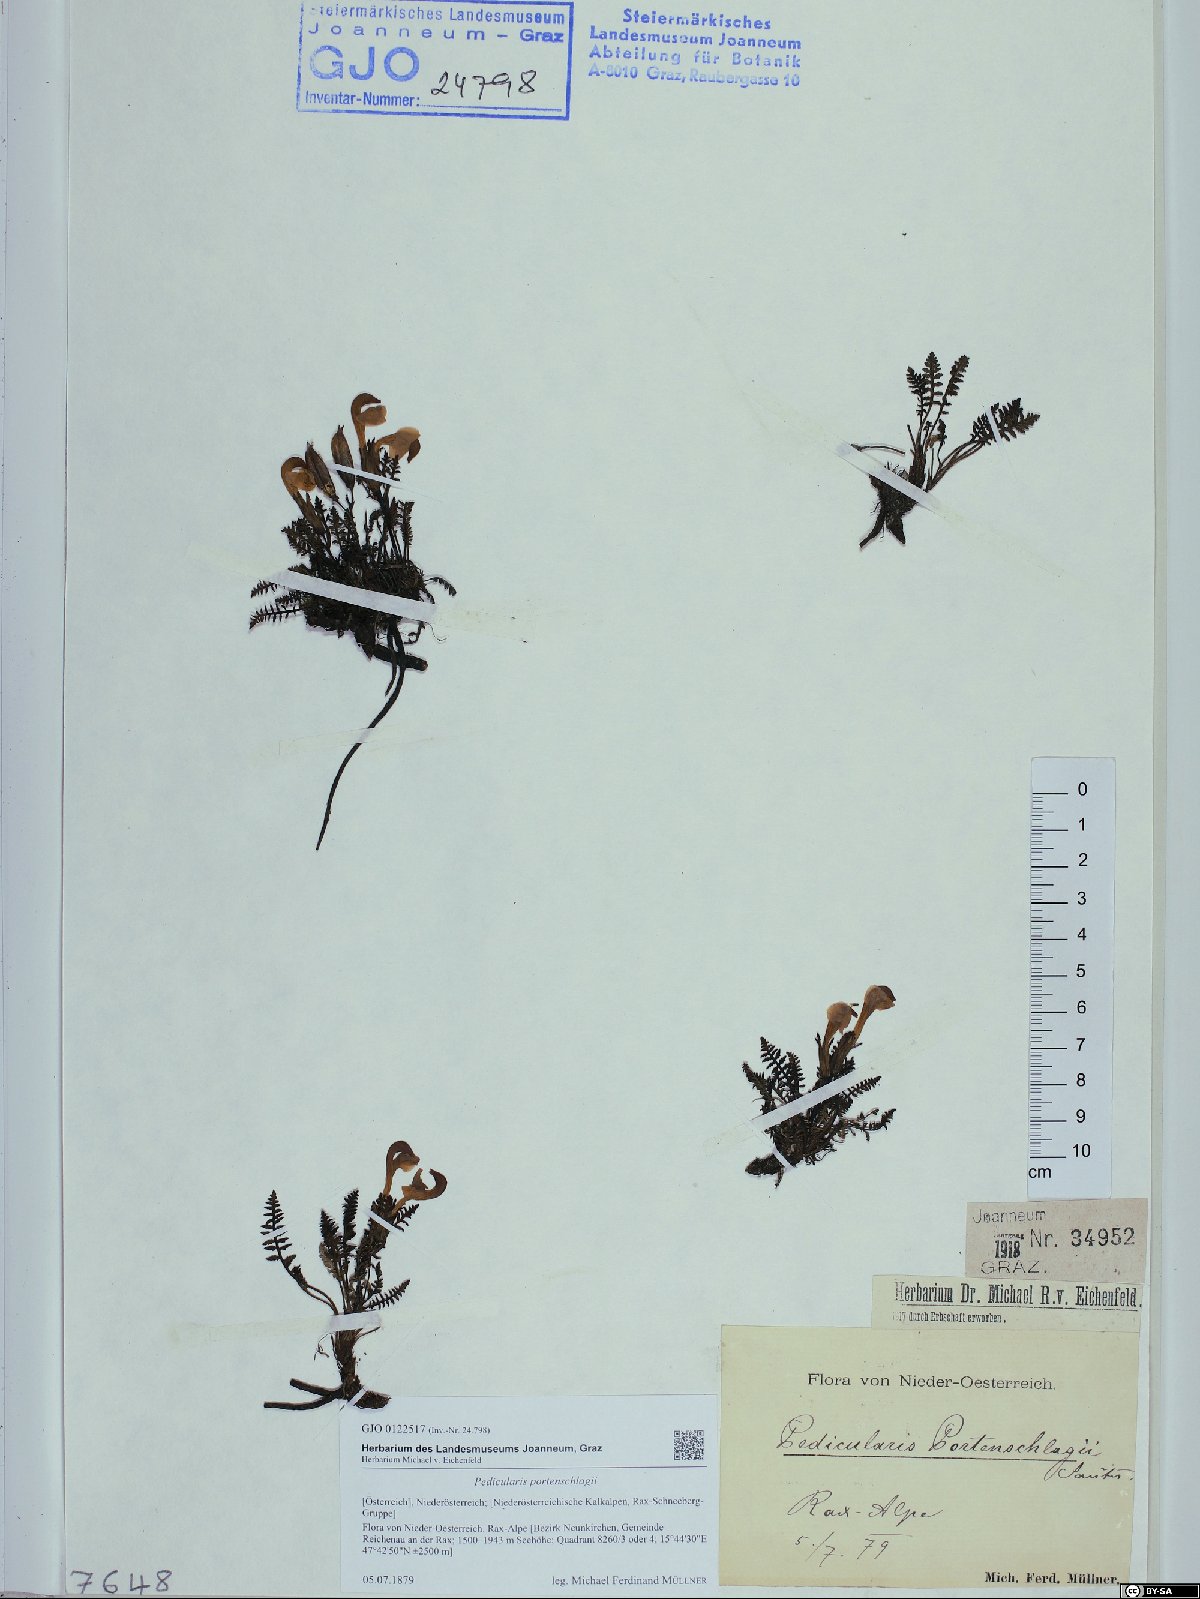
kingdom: Plantae
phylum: Tracheophyta
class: Magnoliopsida
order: Lamiales
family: Orobanchaceae
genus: Pedicularis
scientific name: Pedicularis portenschlagii
